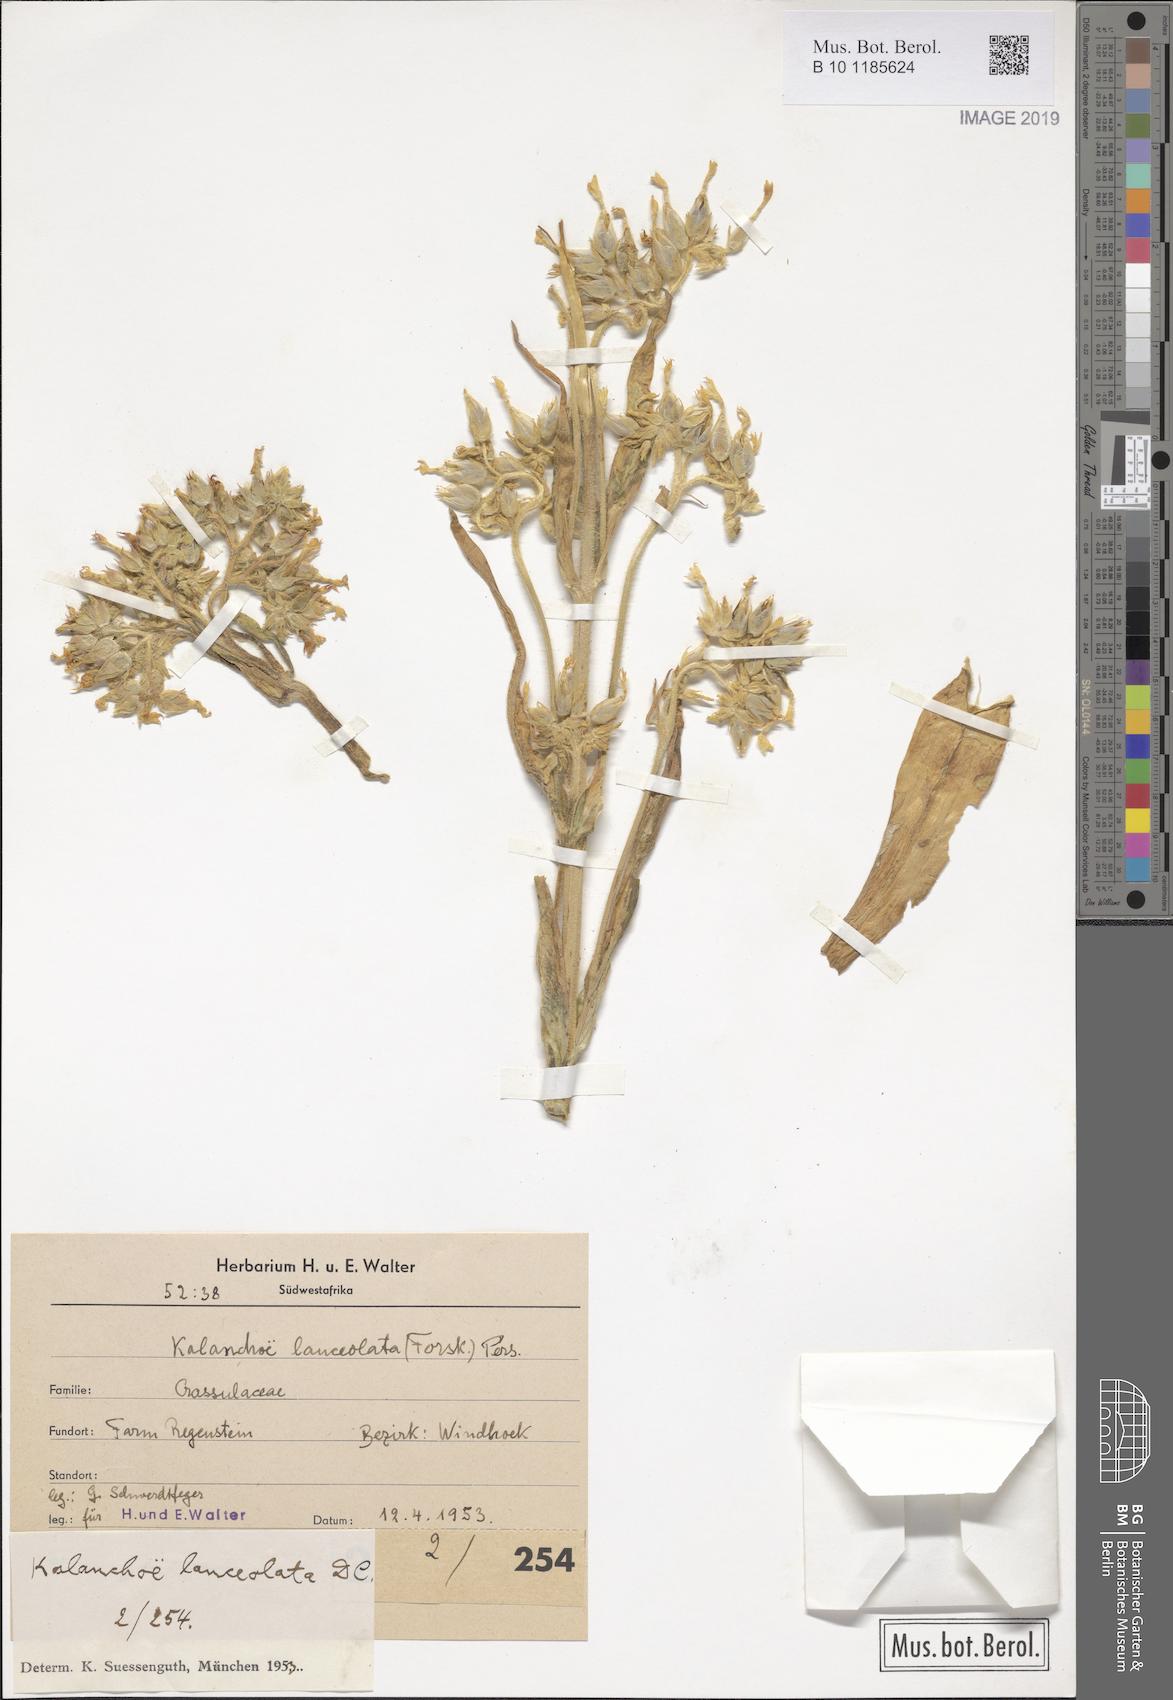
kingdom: Plantae
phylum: Tracheophyta
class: Magnoliopsida
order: Saxifragales
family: Crassulaceae
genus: Kalanchoe
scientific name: Kalanchoe lanceolata
